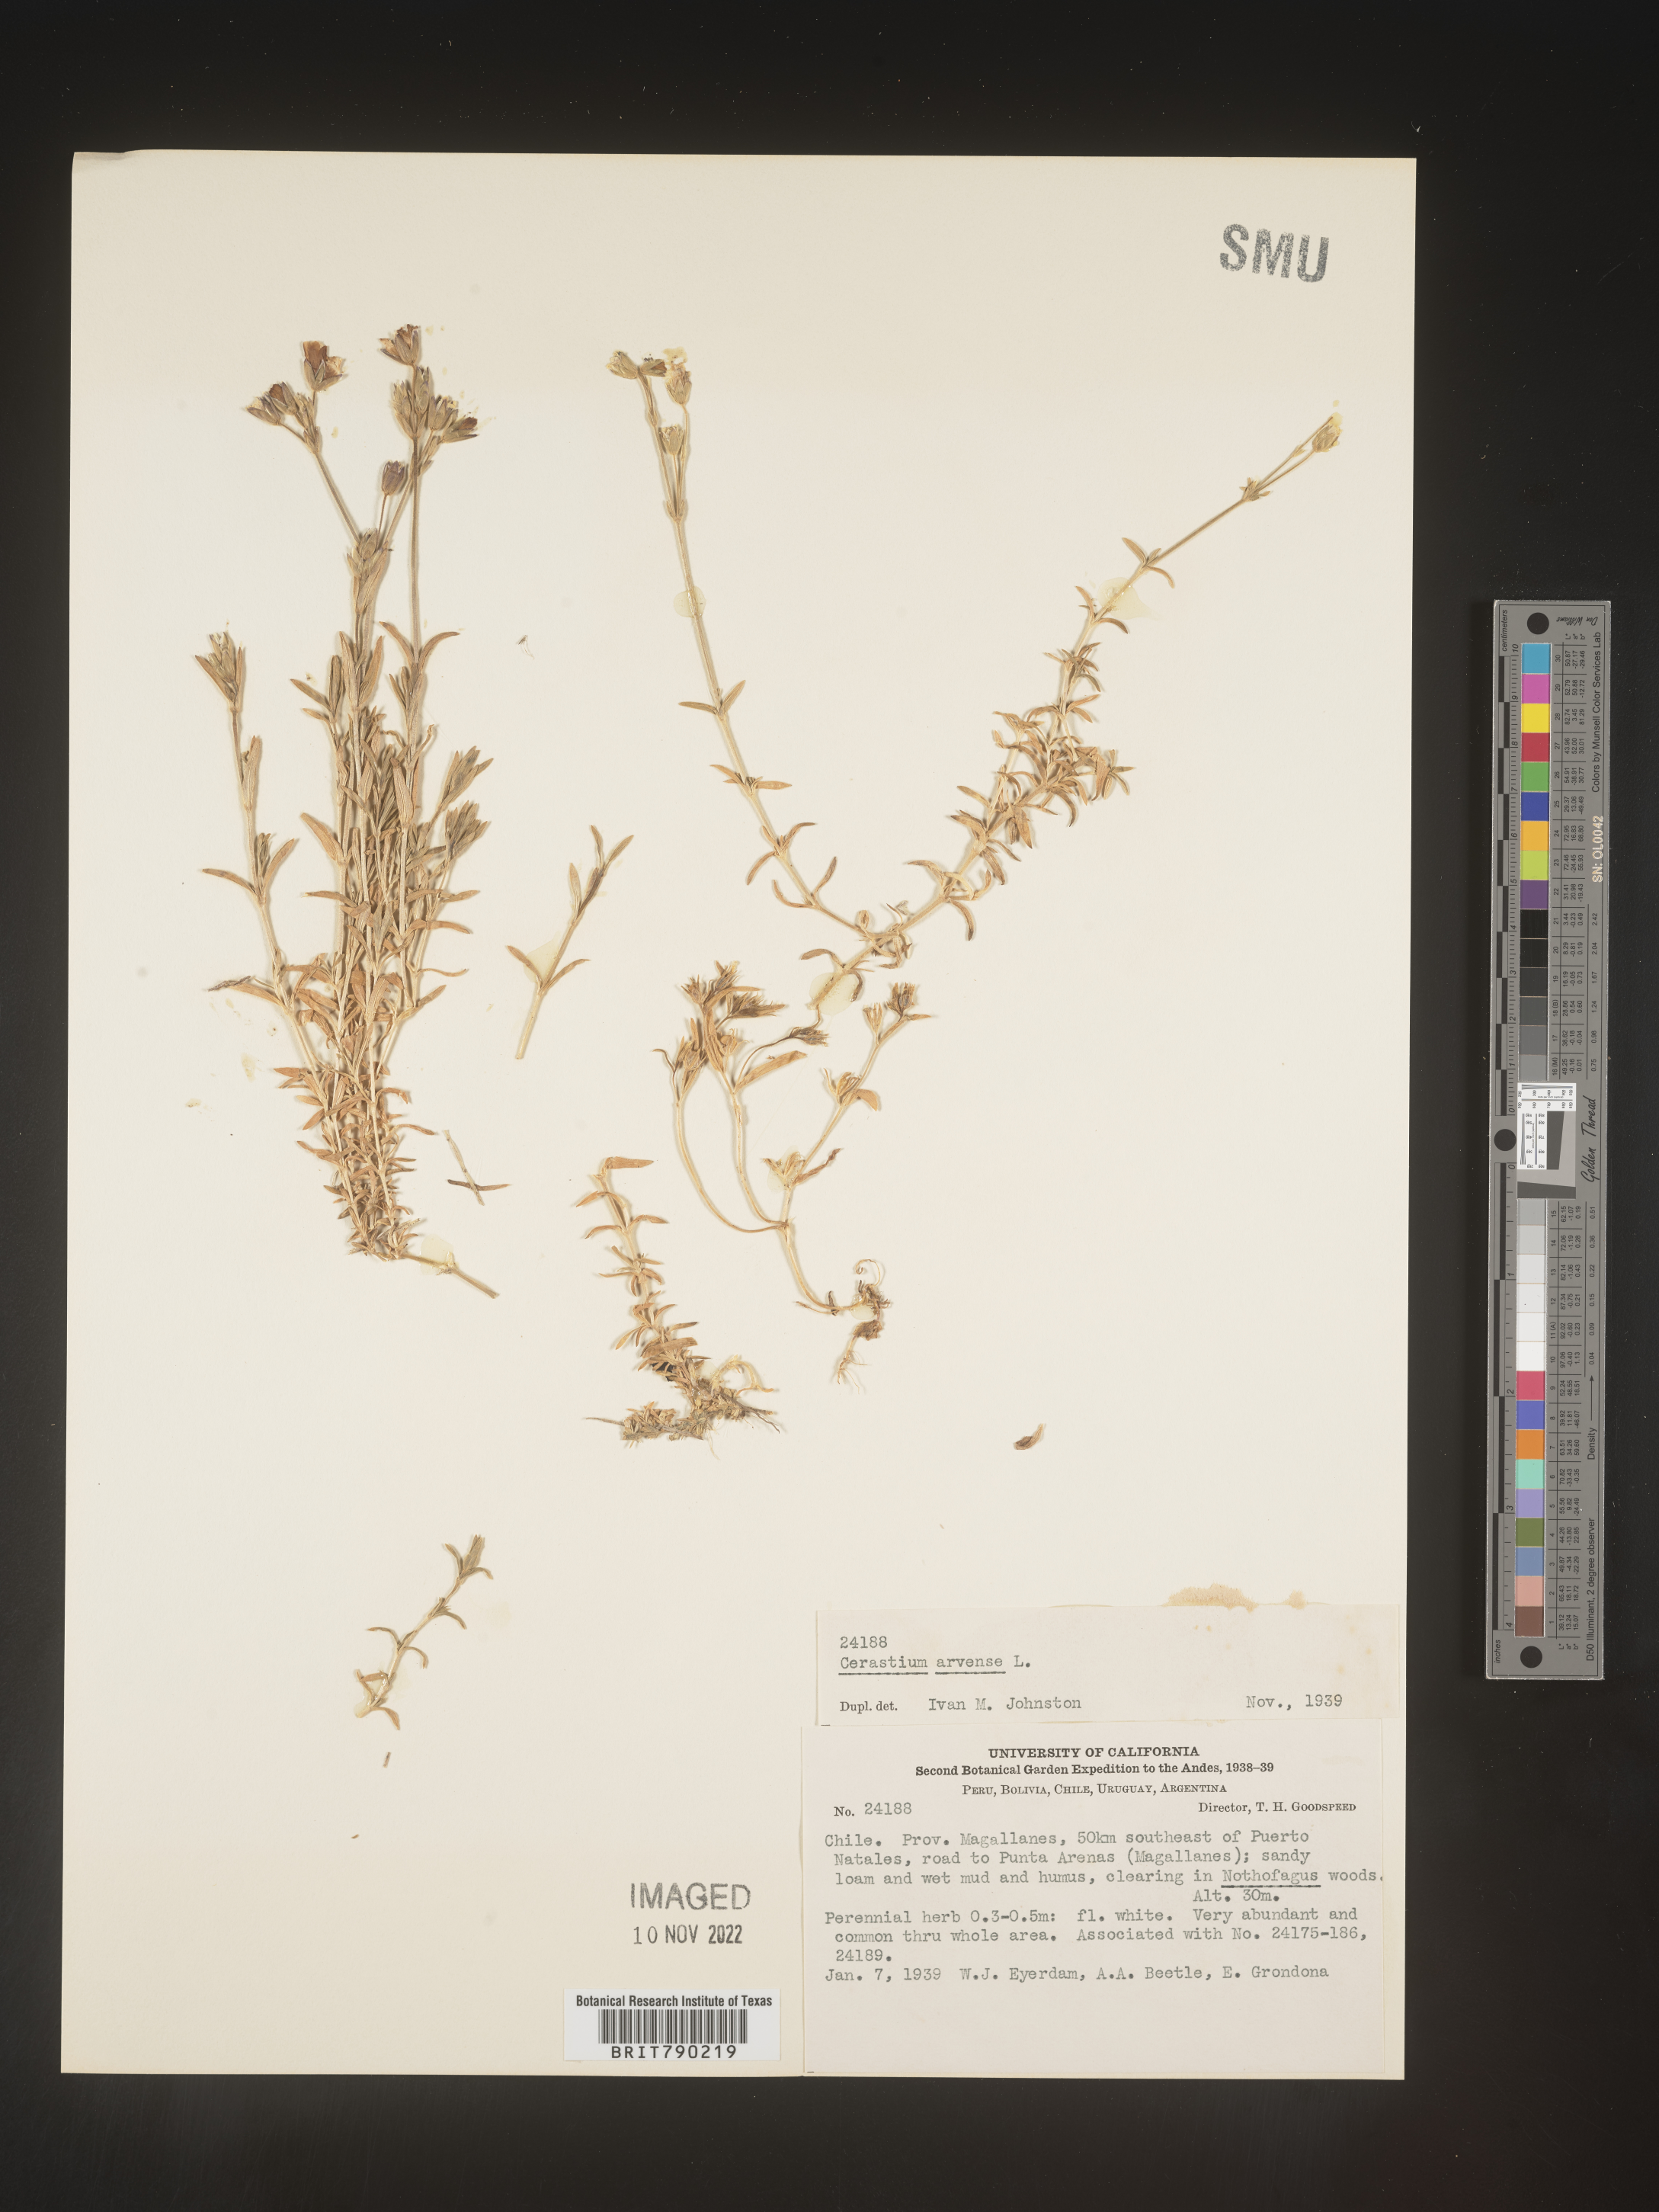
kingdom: Plantae
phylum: Tracheophyta
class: Magnoliopsida
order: Caryophyllales
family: Caryophyllaceae
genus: Cerastium
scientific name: Cerastium
